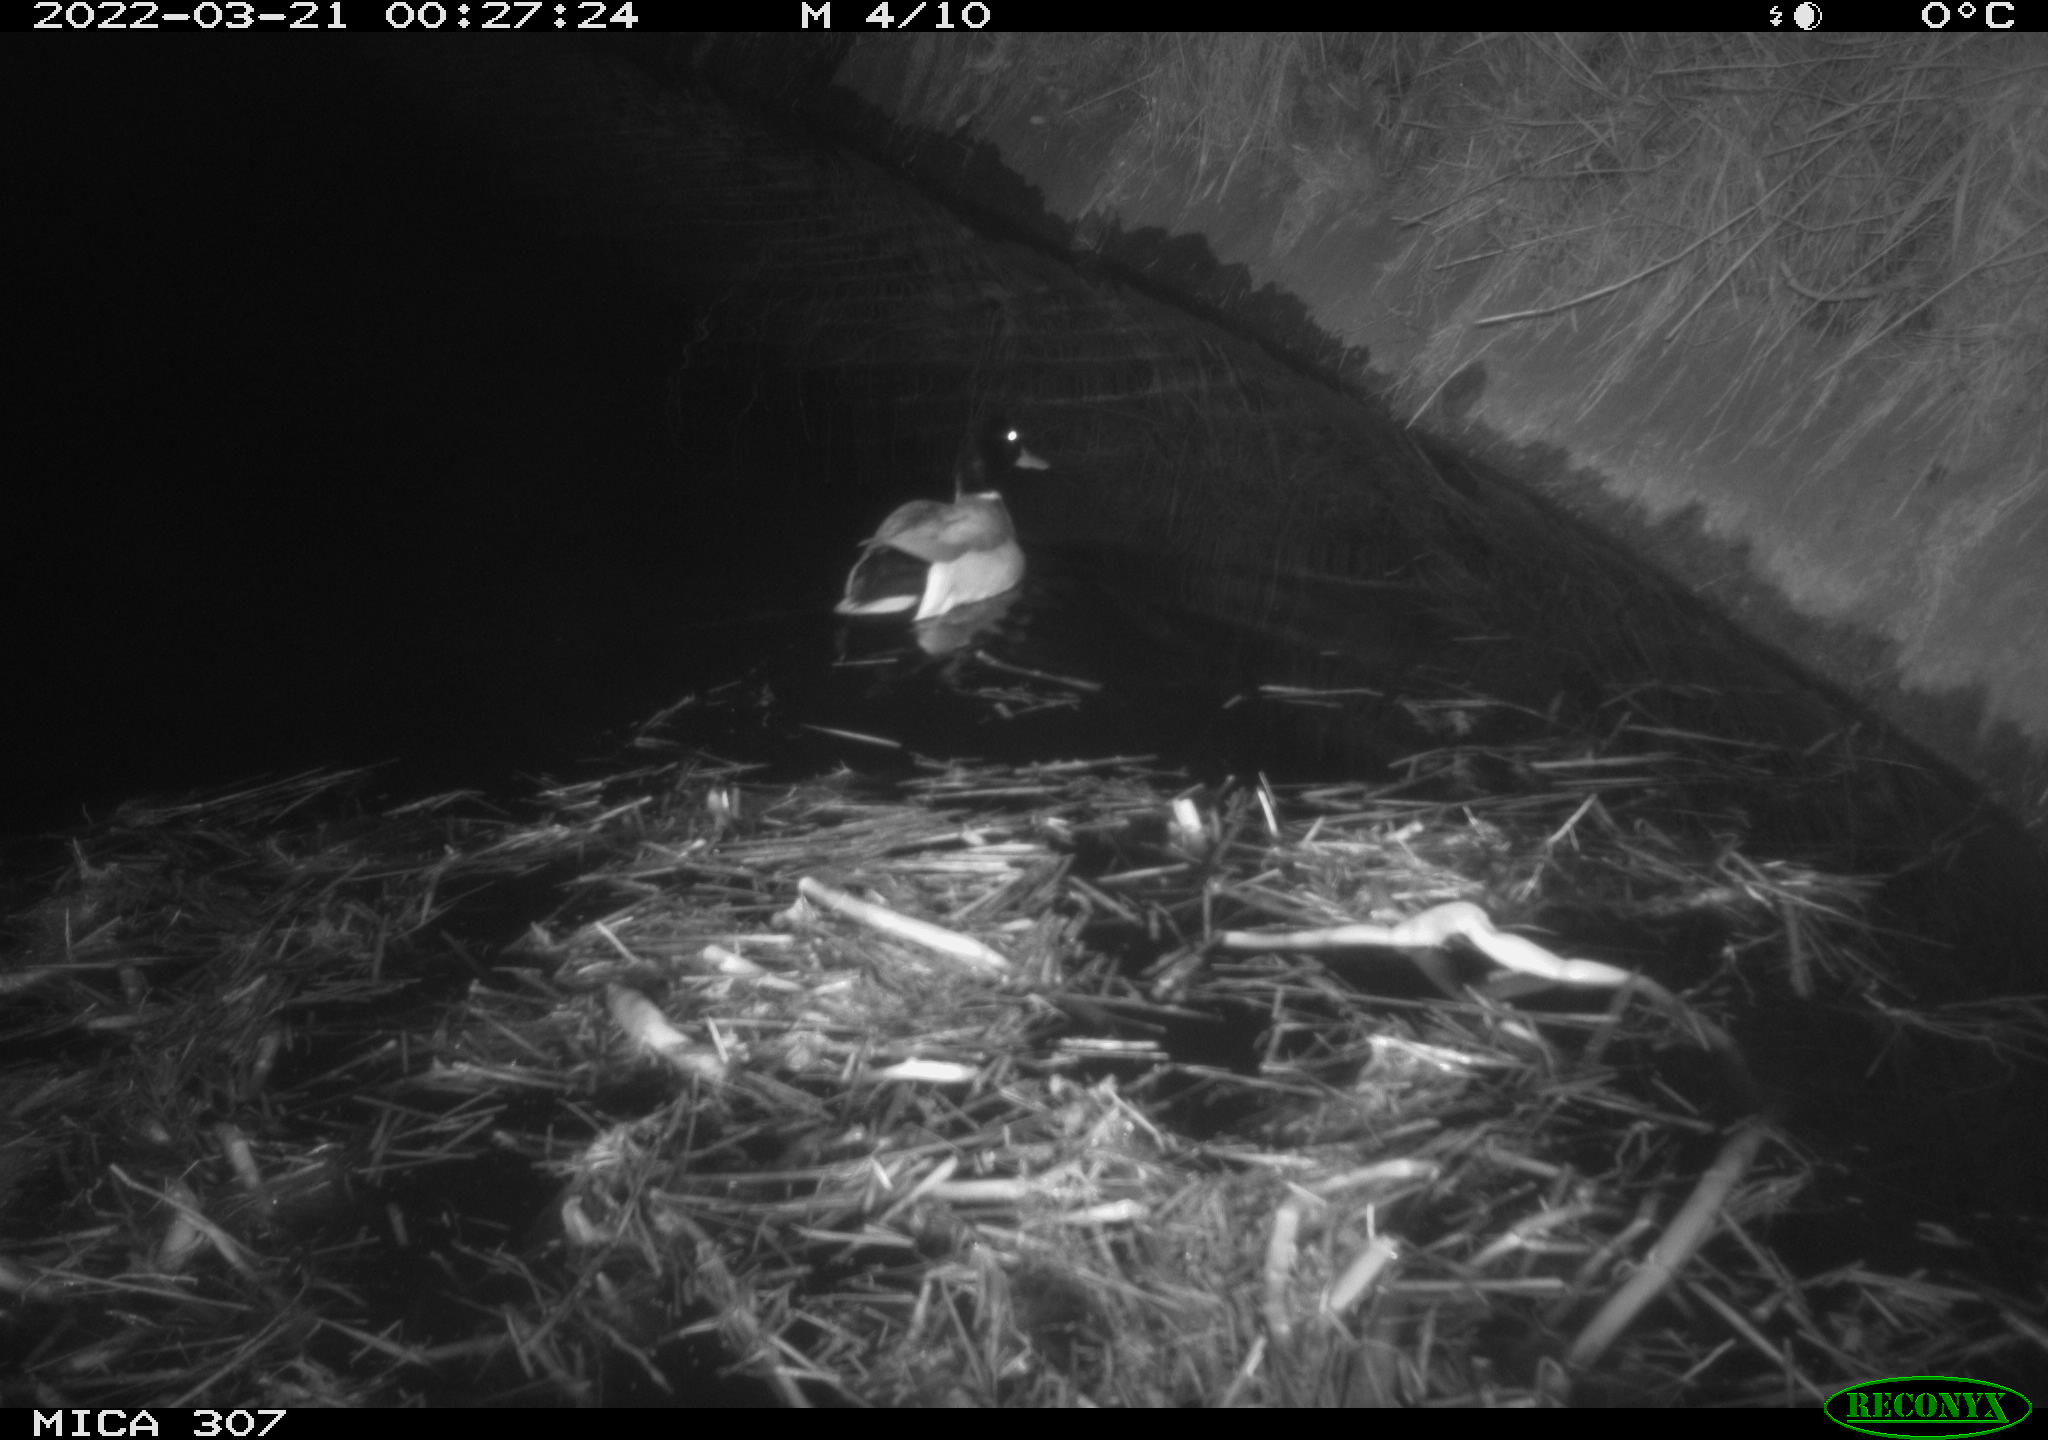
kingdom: Animalia
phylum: Chordata
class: Aves
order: Anseriformes
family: Anatidae
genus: Anas
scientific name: Anas platyrhynchos
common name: Mallard
